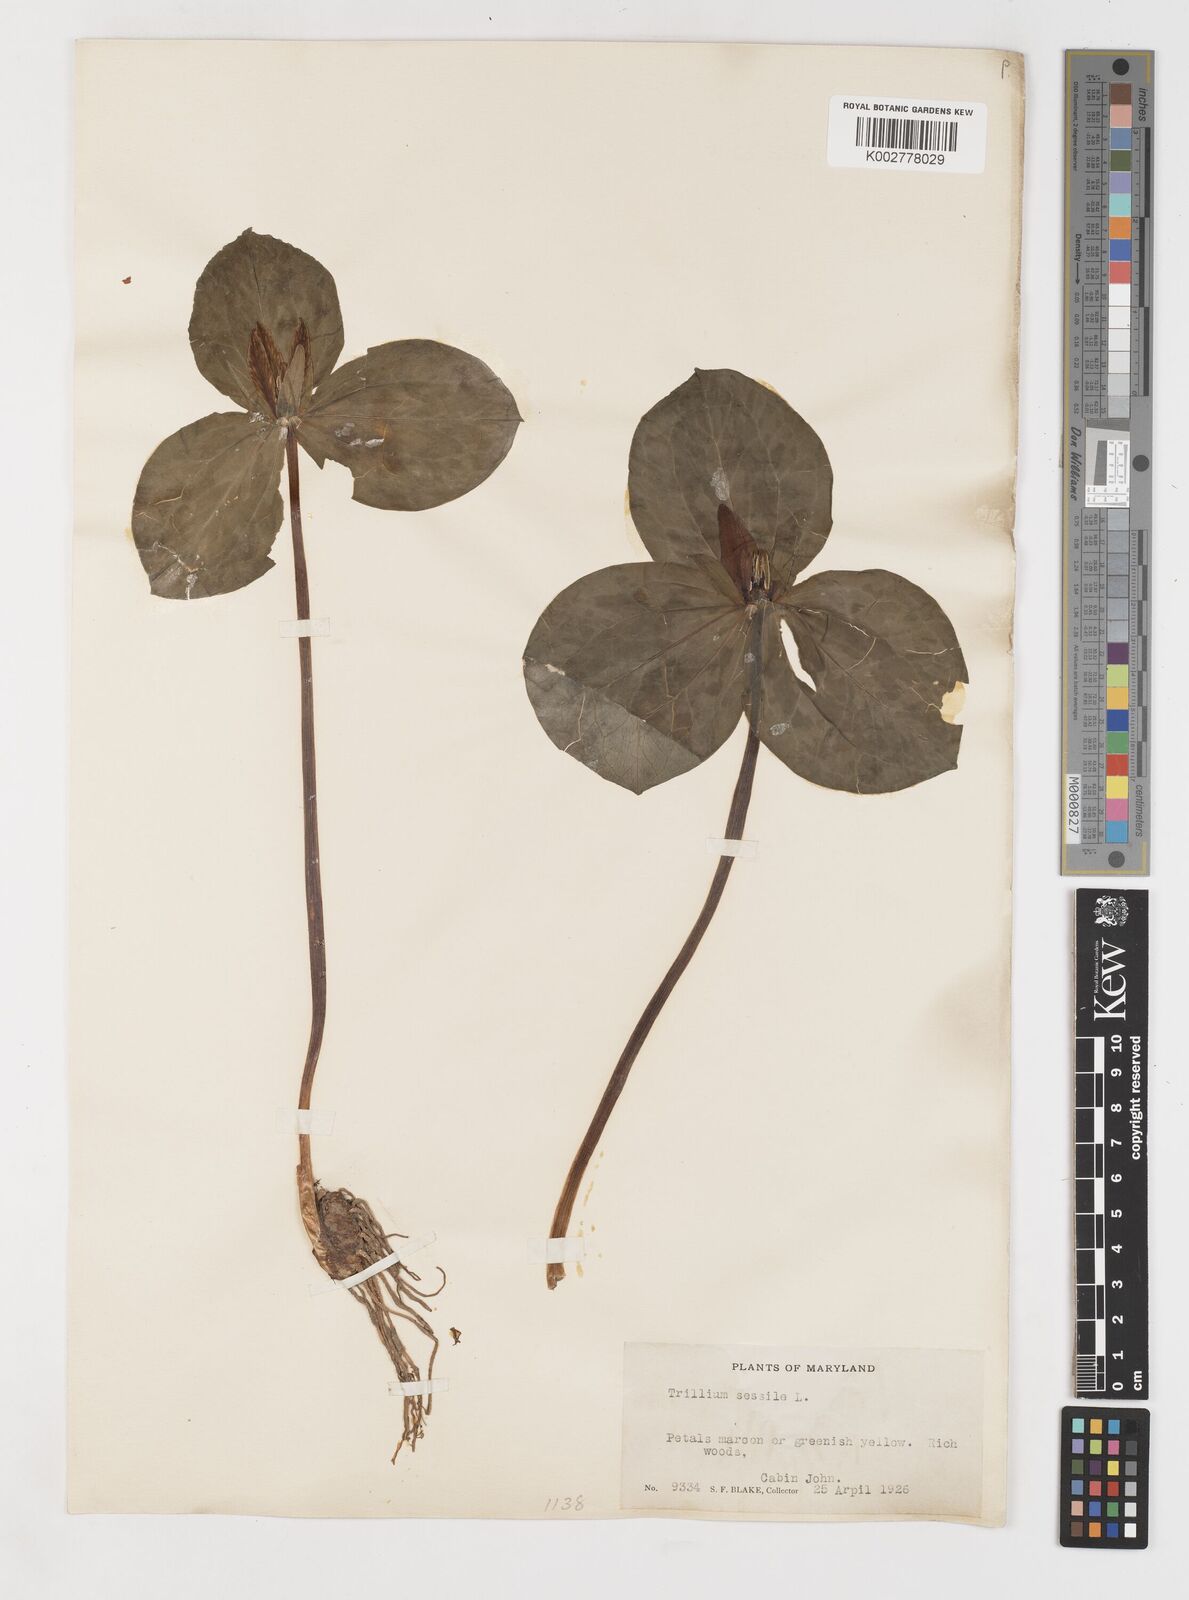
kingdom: Plantae
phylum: Tracheophyta
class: Liliopsida
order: Liliales
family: Melanthiaceae
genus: Trillium
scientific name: Trillium sessile
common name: Sessile trillium
